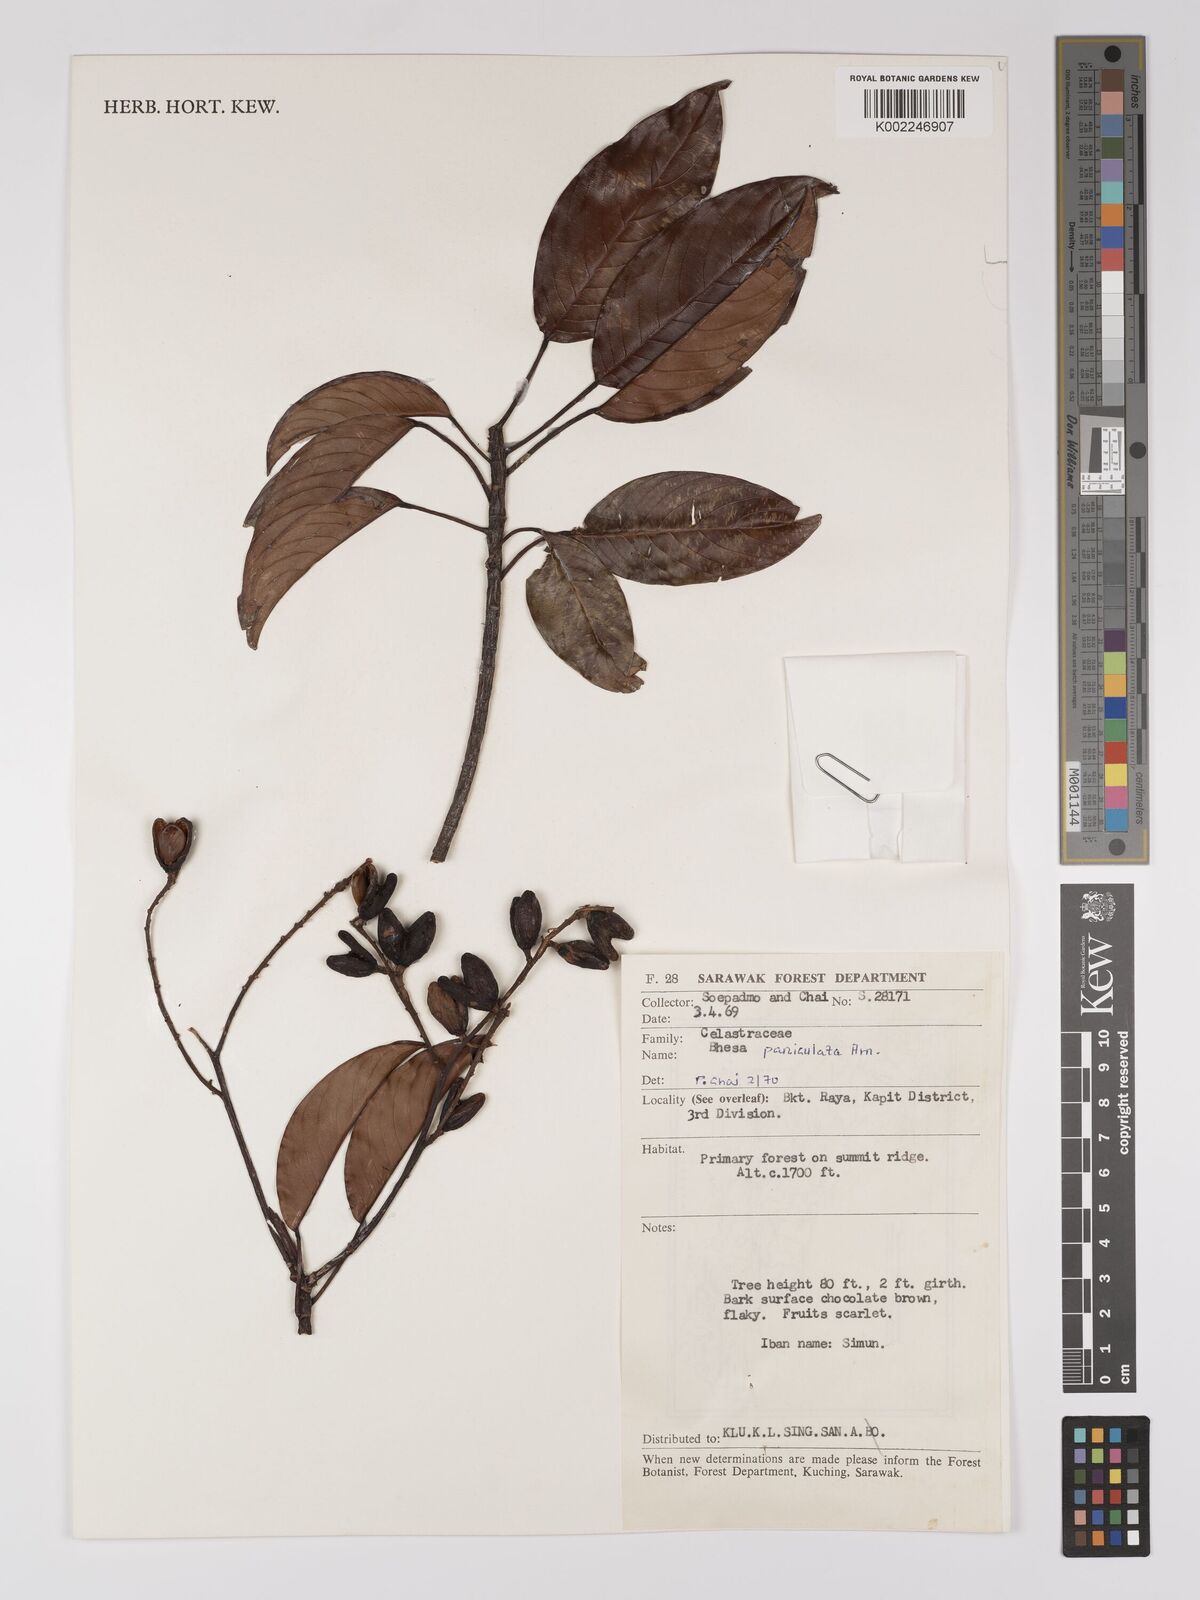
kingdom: Plantae
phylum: Tracheophyta
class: Magnoliopsida
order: Malpighiales
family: Centroplacaceae
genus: Bhesa
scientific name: Bhesa paniculata
